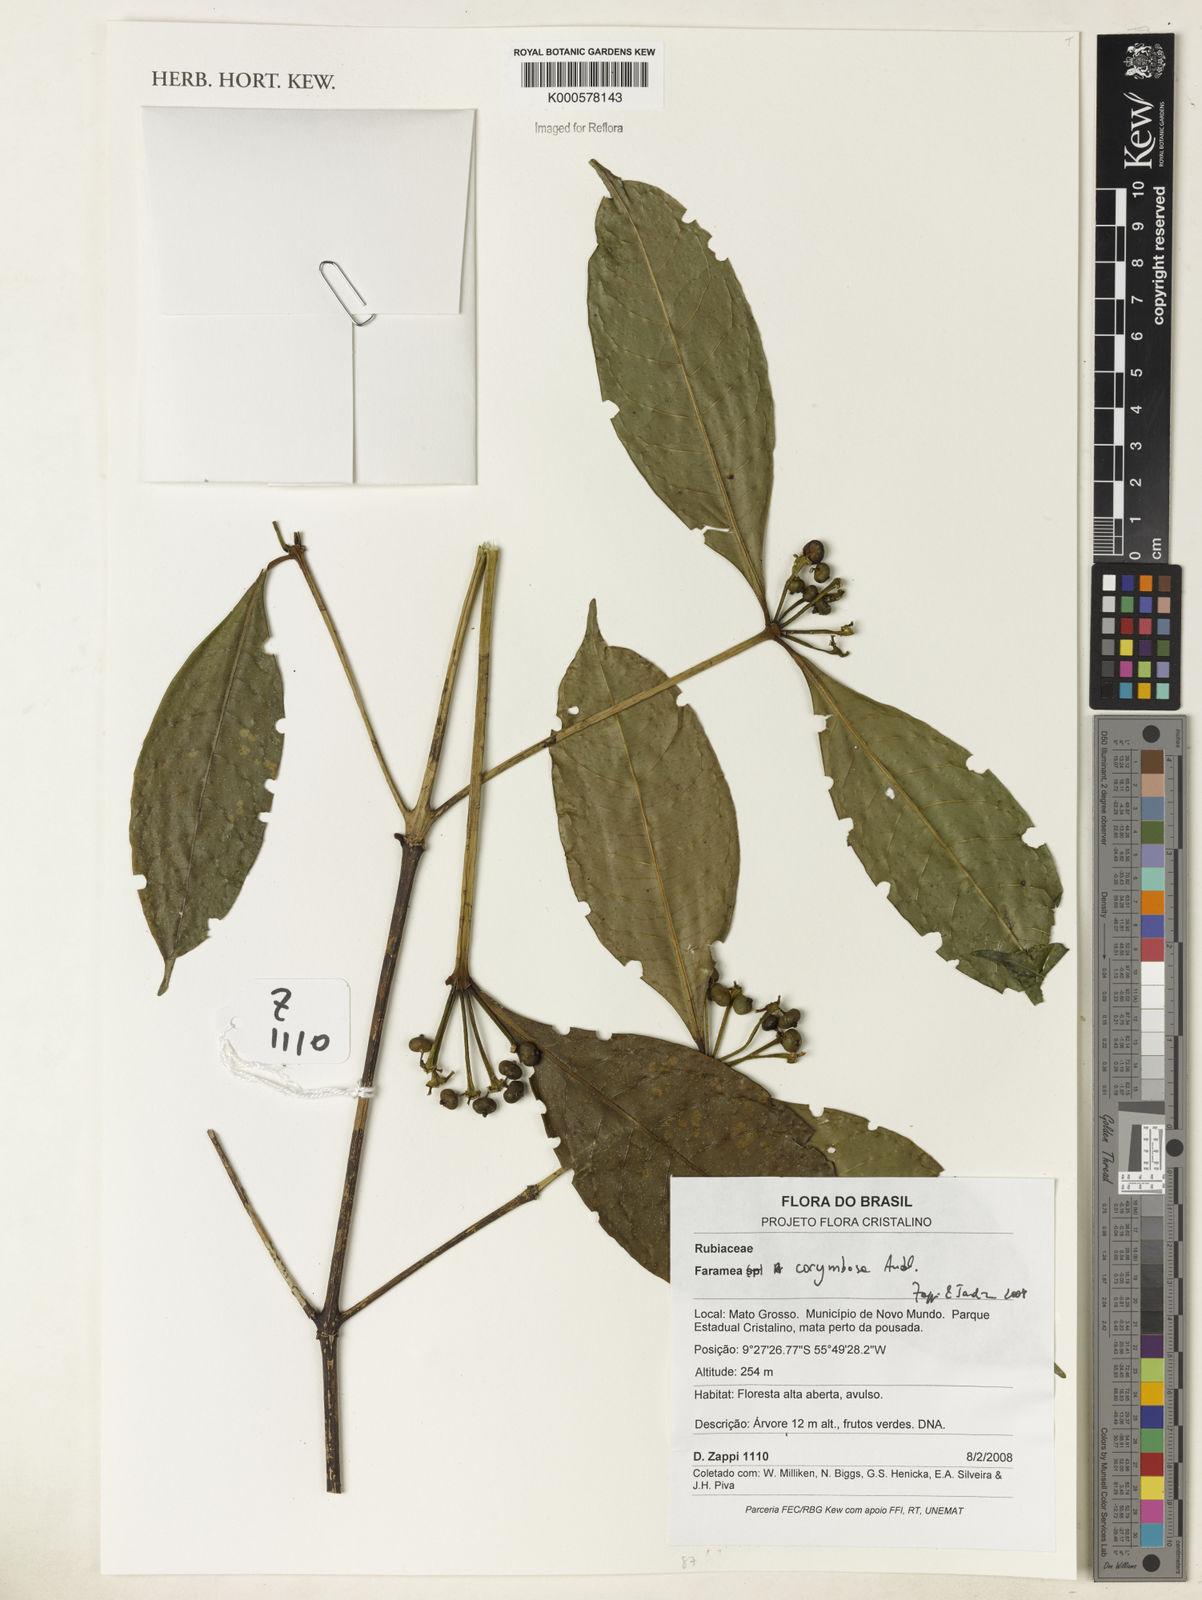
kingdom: Plantae
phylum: Tracheophyta
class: Magnoliopsida
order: Gentianales
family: Rubiaceae
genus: Faramea
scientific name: Faramea corymbosa
